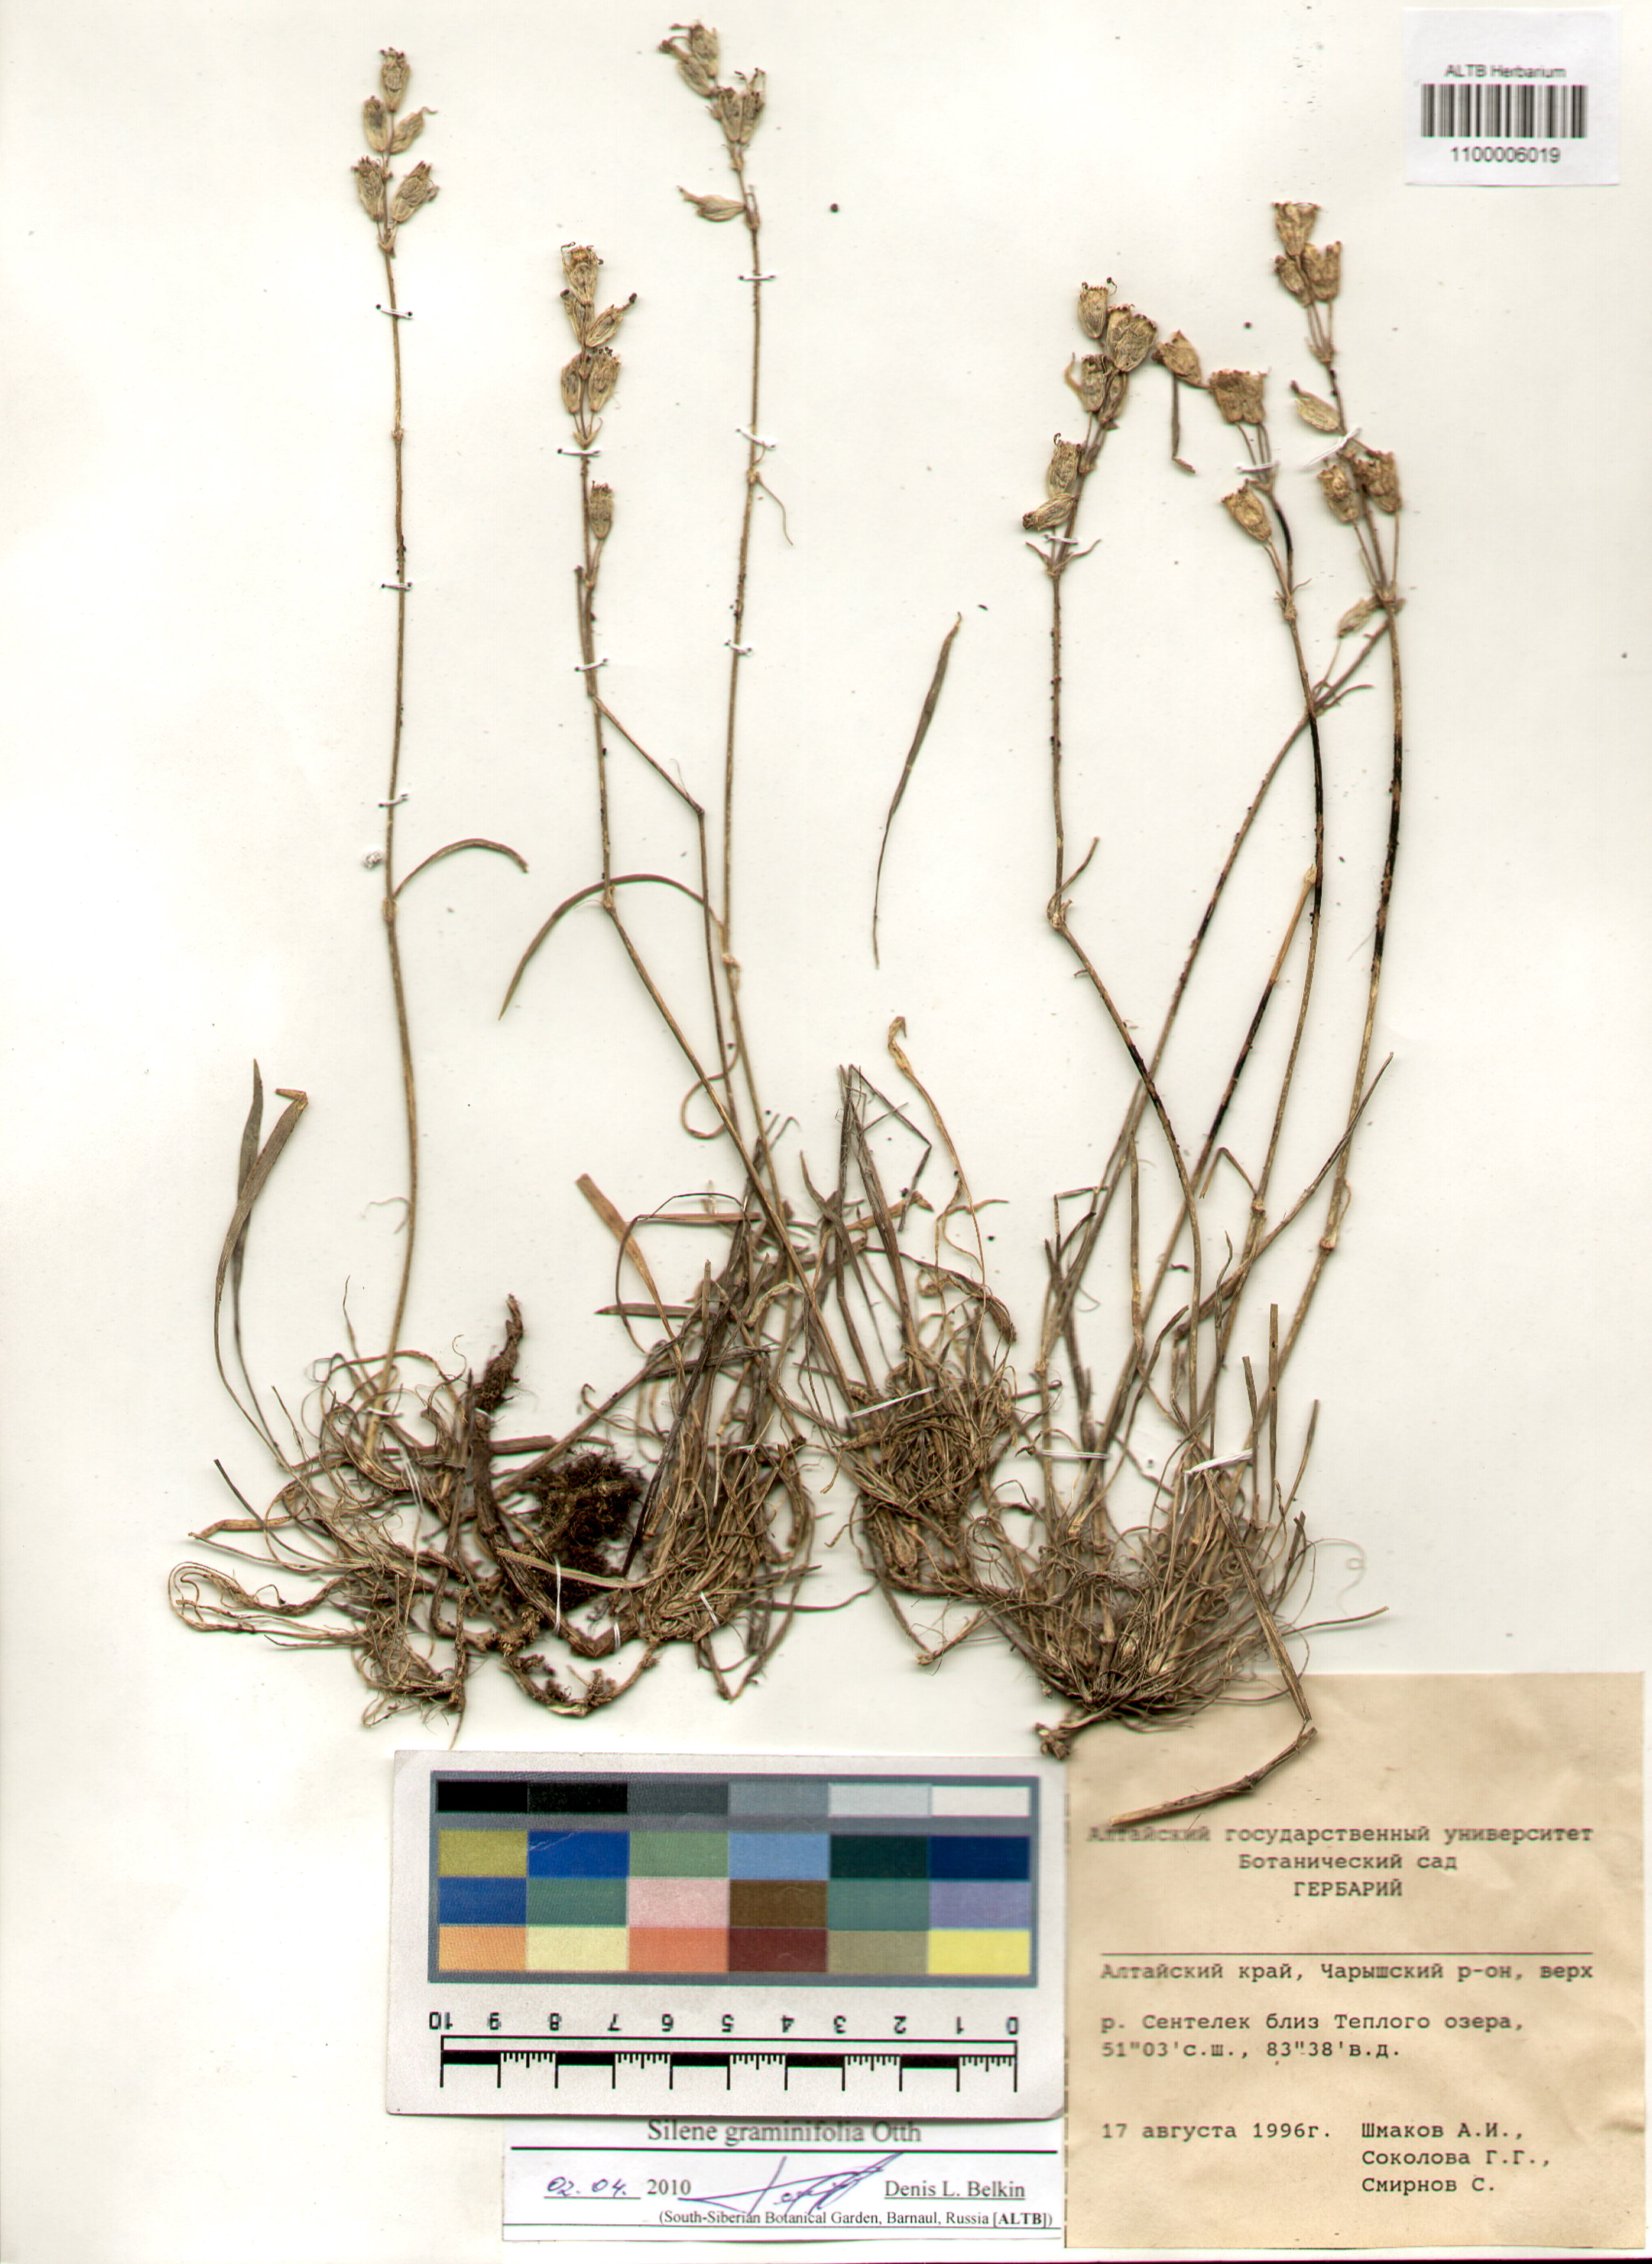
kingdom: Plantae
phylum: Tracheophyta
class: Magnoliopsida
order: Caryophyllales
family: Caryophyllaceae
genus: Silene
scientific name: Silene graminifolia
